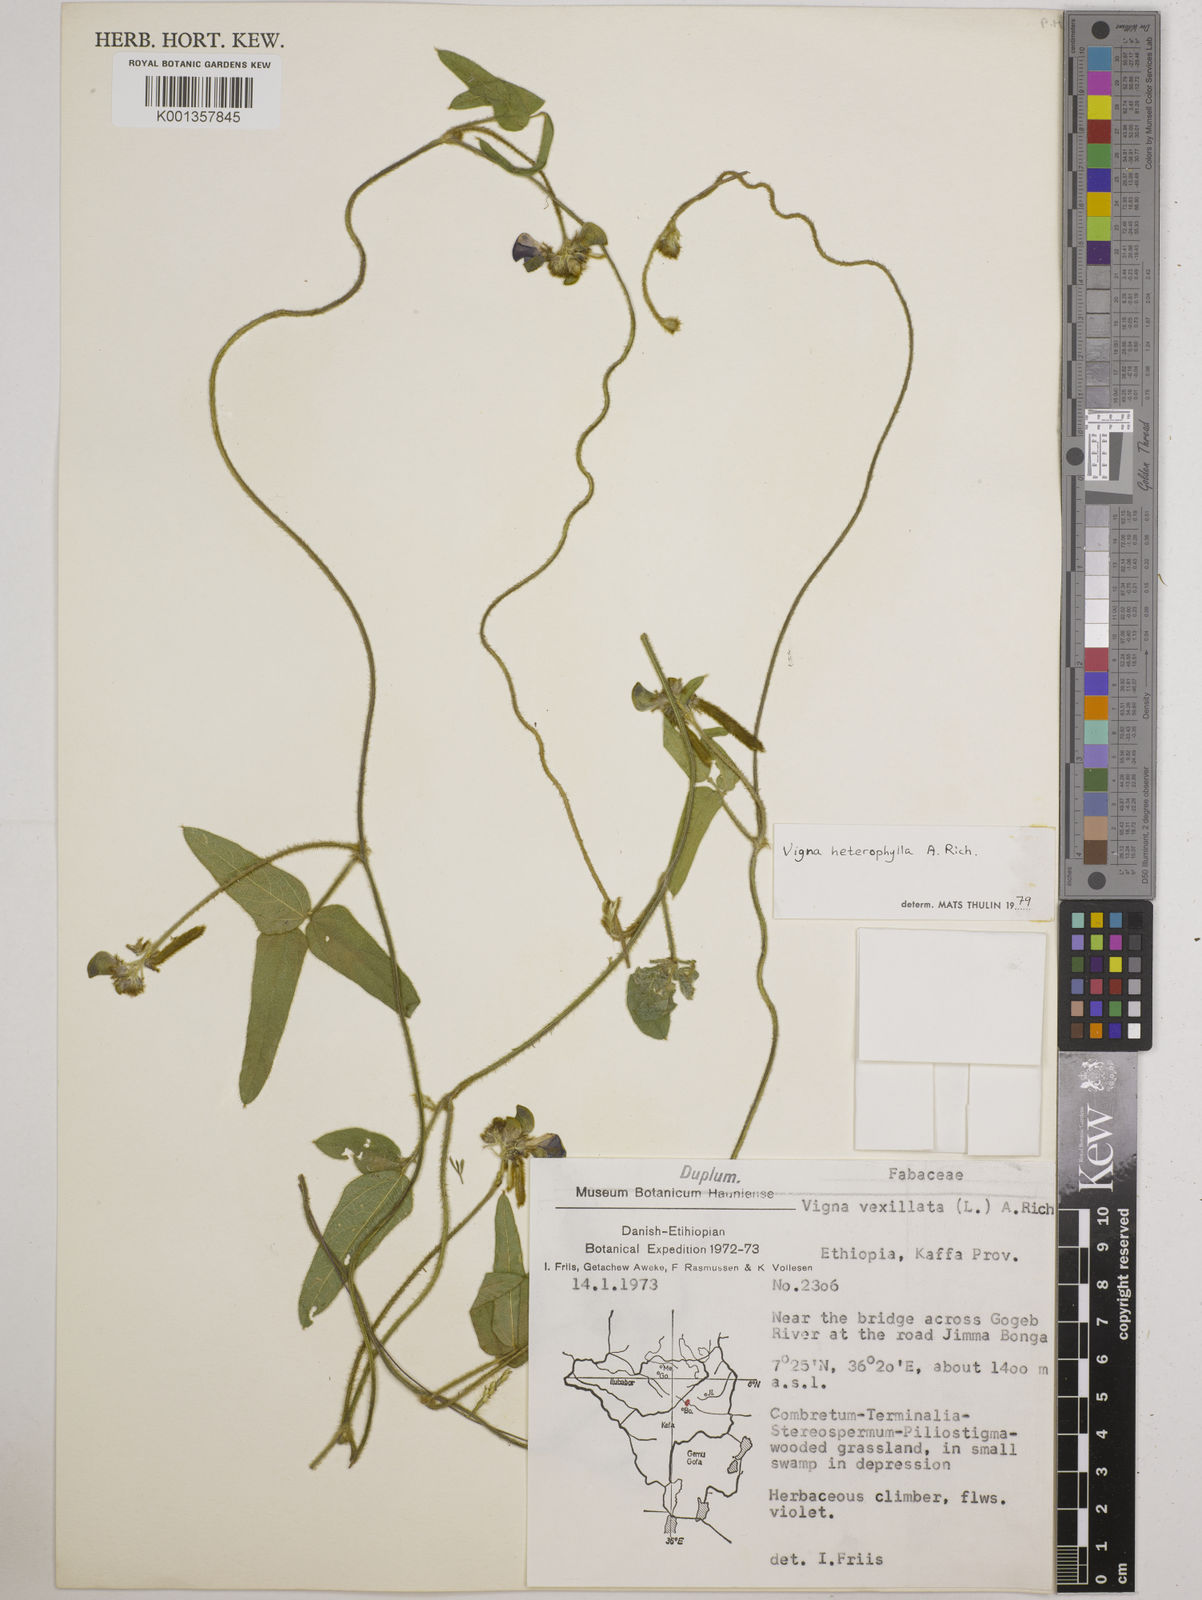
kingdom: Plantae
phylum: Tracheophyta
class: Magnoliopsida
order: Fabales
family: Fabaceae
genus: Vigna
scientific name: Vigna heterophylla
